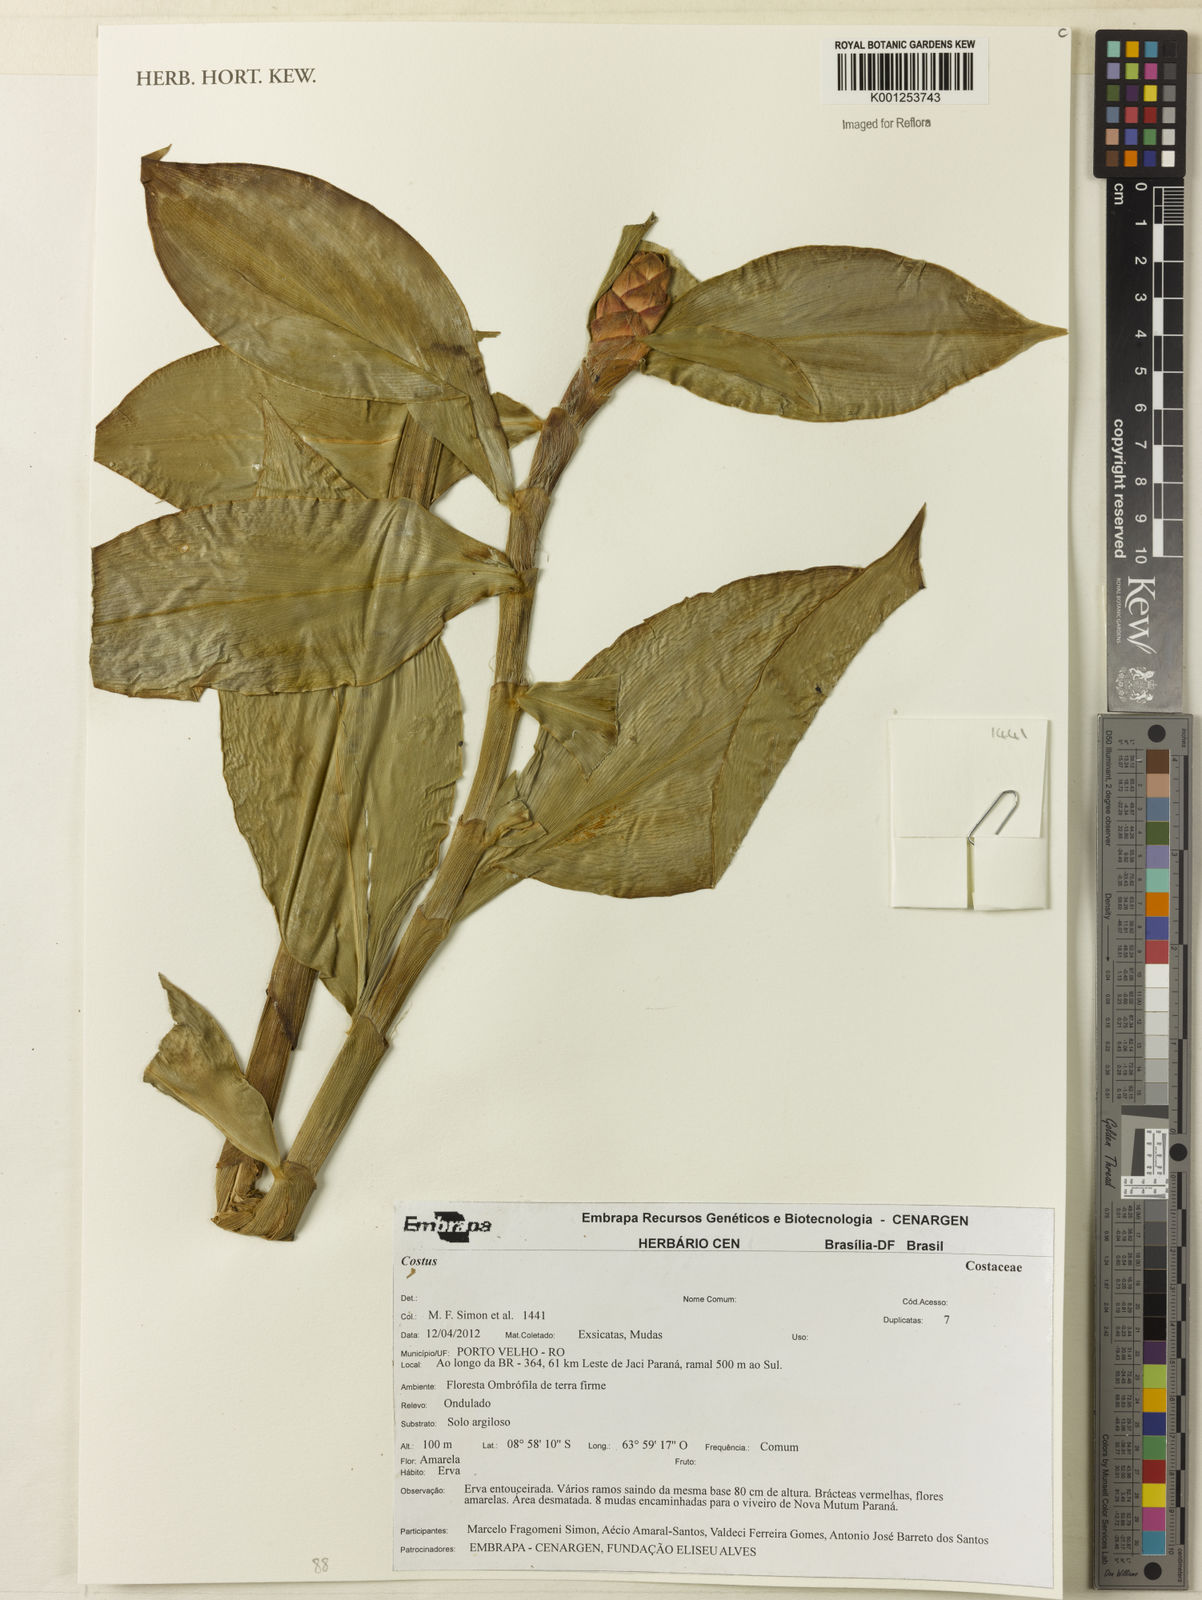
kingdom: Plantae
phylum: Tracheophyta
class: Liliopsida
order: Zingiberales
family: Costaceae
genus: Costus
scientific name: Costus
